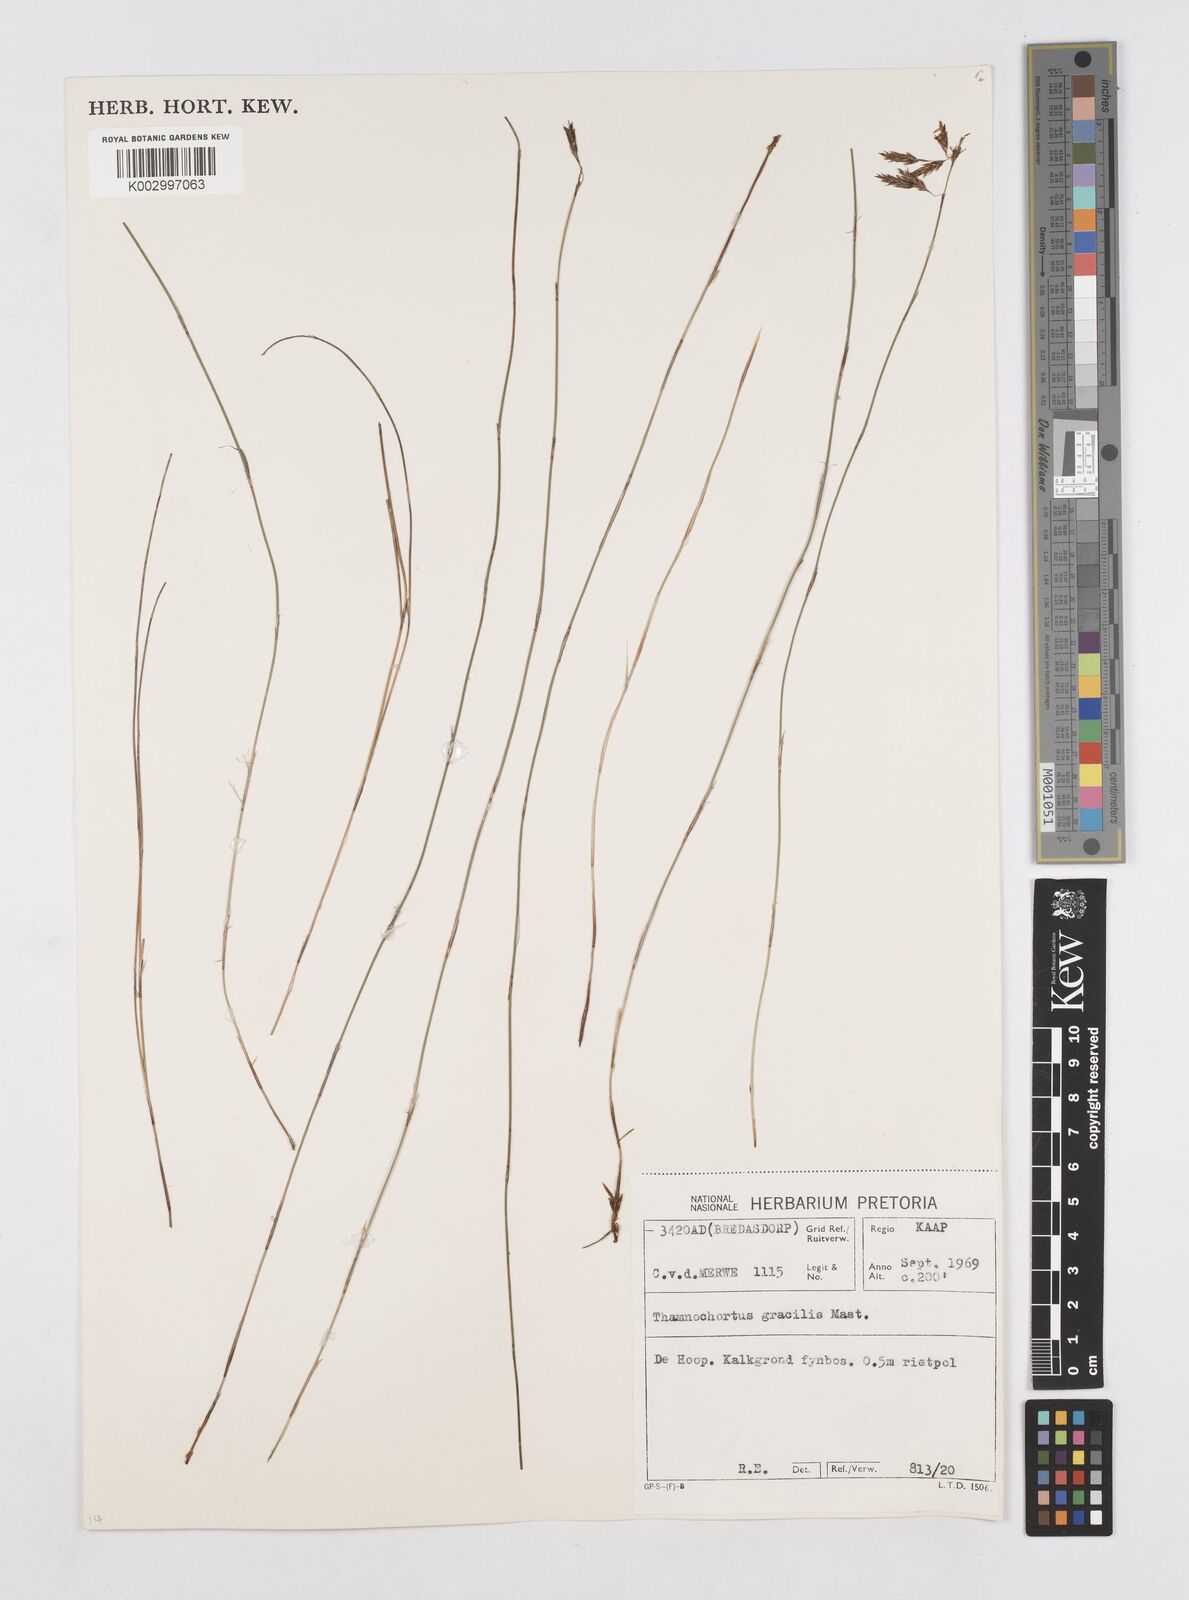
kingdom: Plantae
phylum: Tracheophyta
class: Liliopsida
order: Poales
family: Restionaceae
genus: Thamnochortus
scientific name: Thamnochortus gracilis
